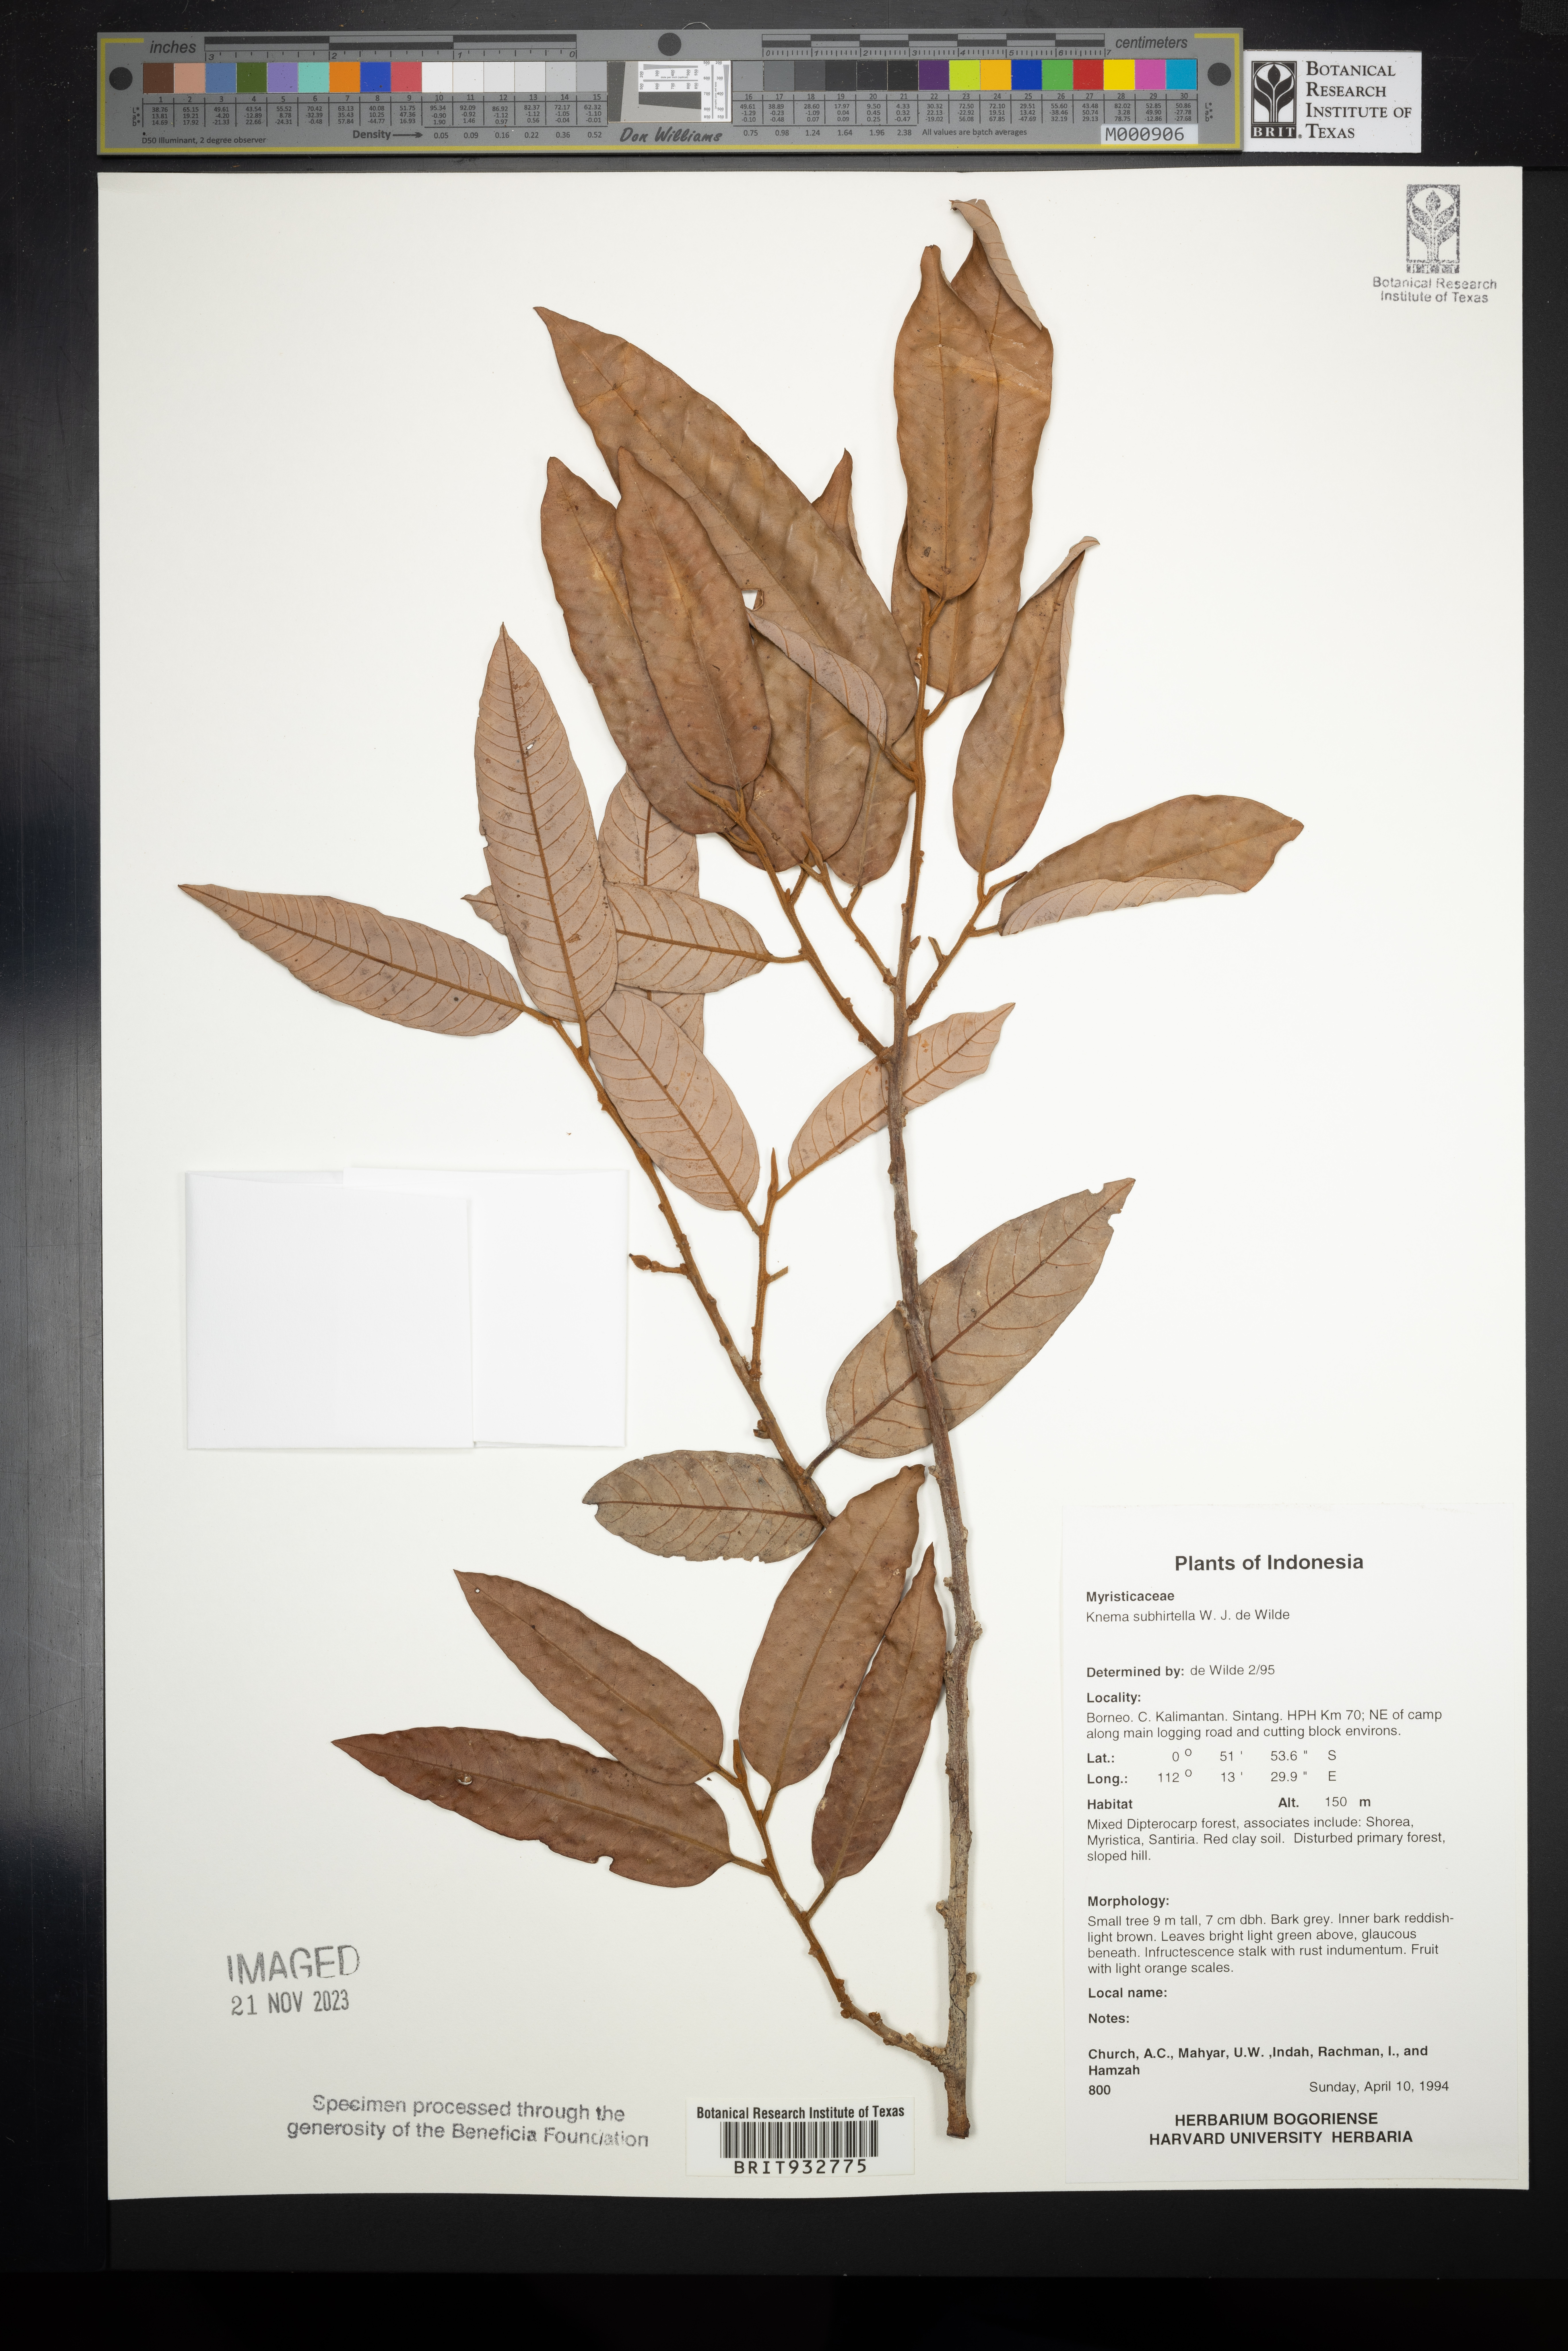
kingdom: Plantae
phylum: Tracheophyta
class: Magnoliopsida
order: Magnoliales
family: Myristicaceae
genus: Knema
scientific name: Knema
